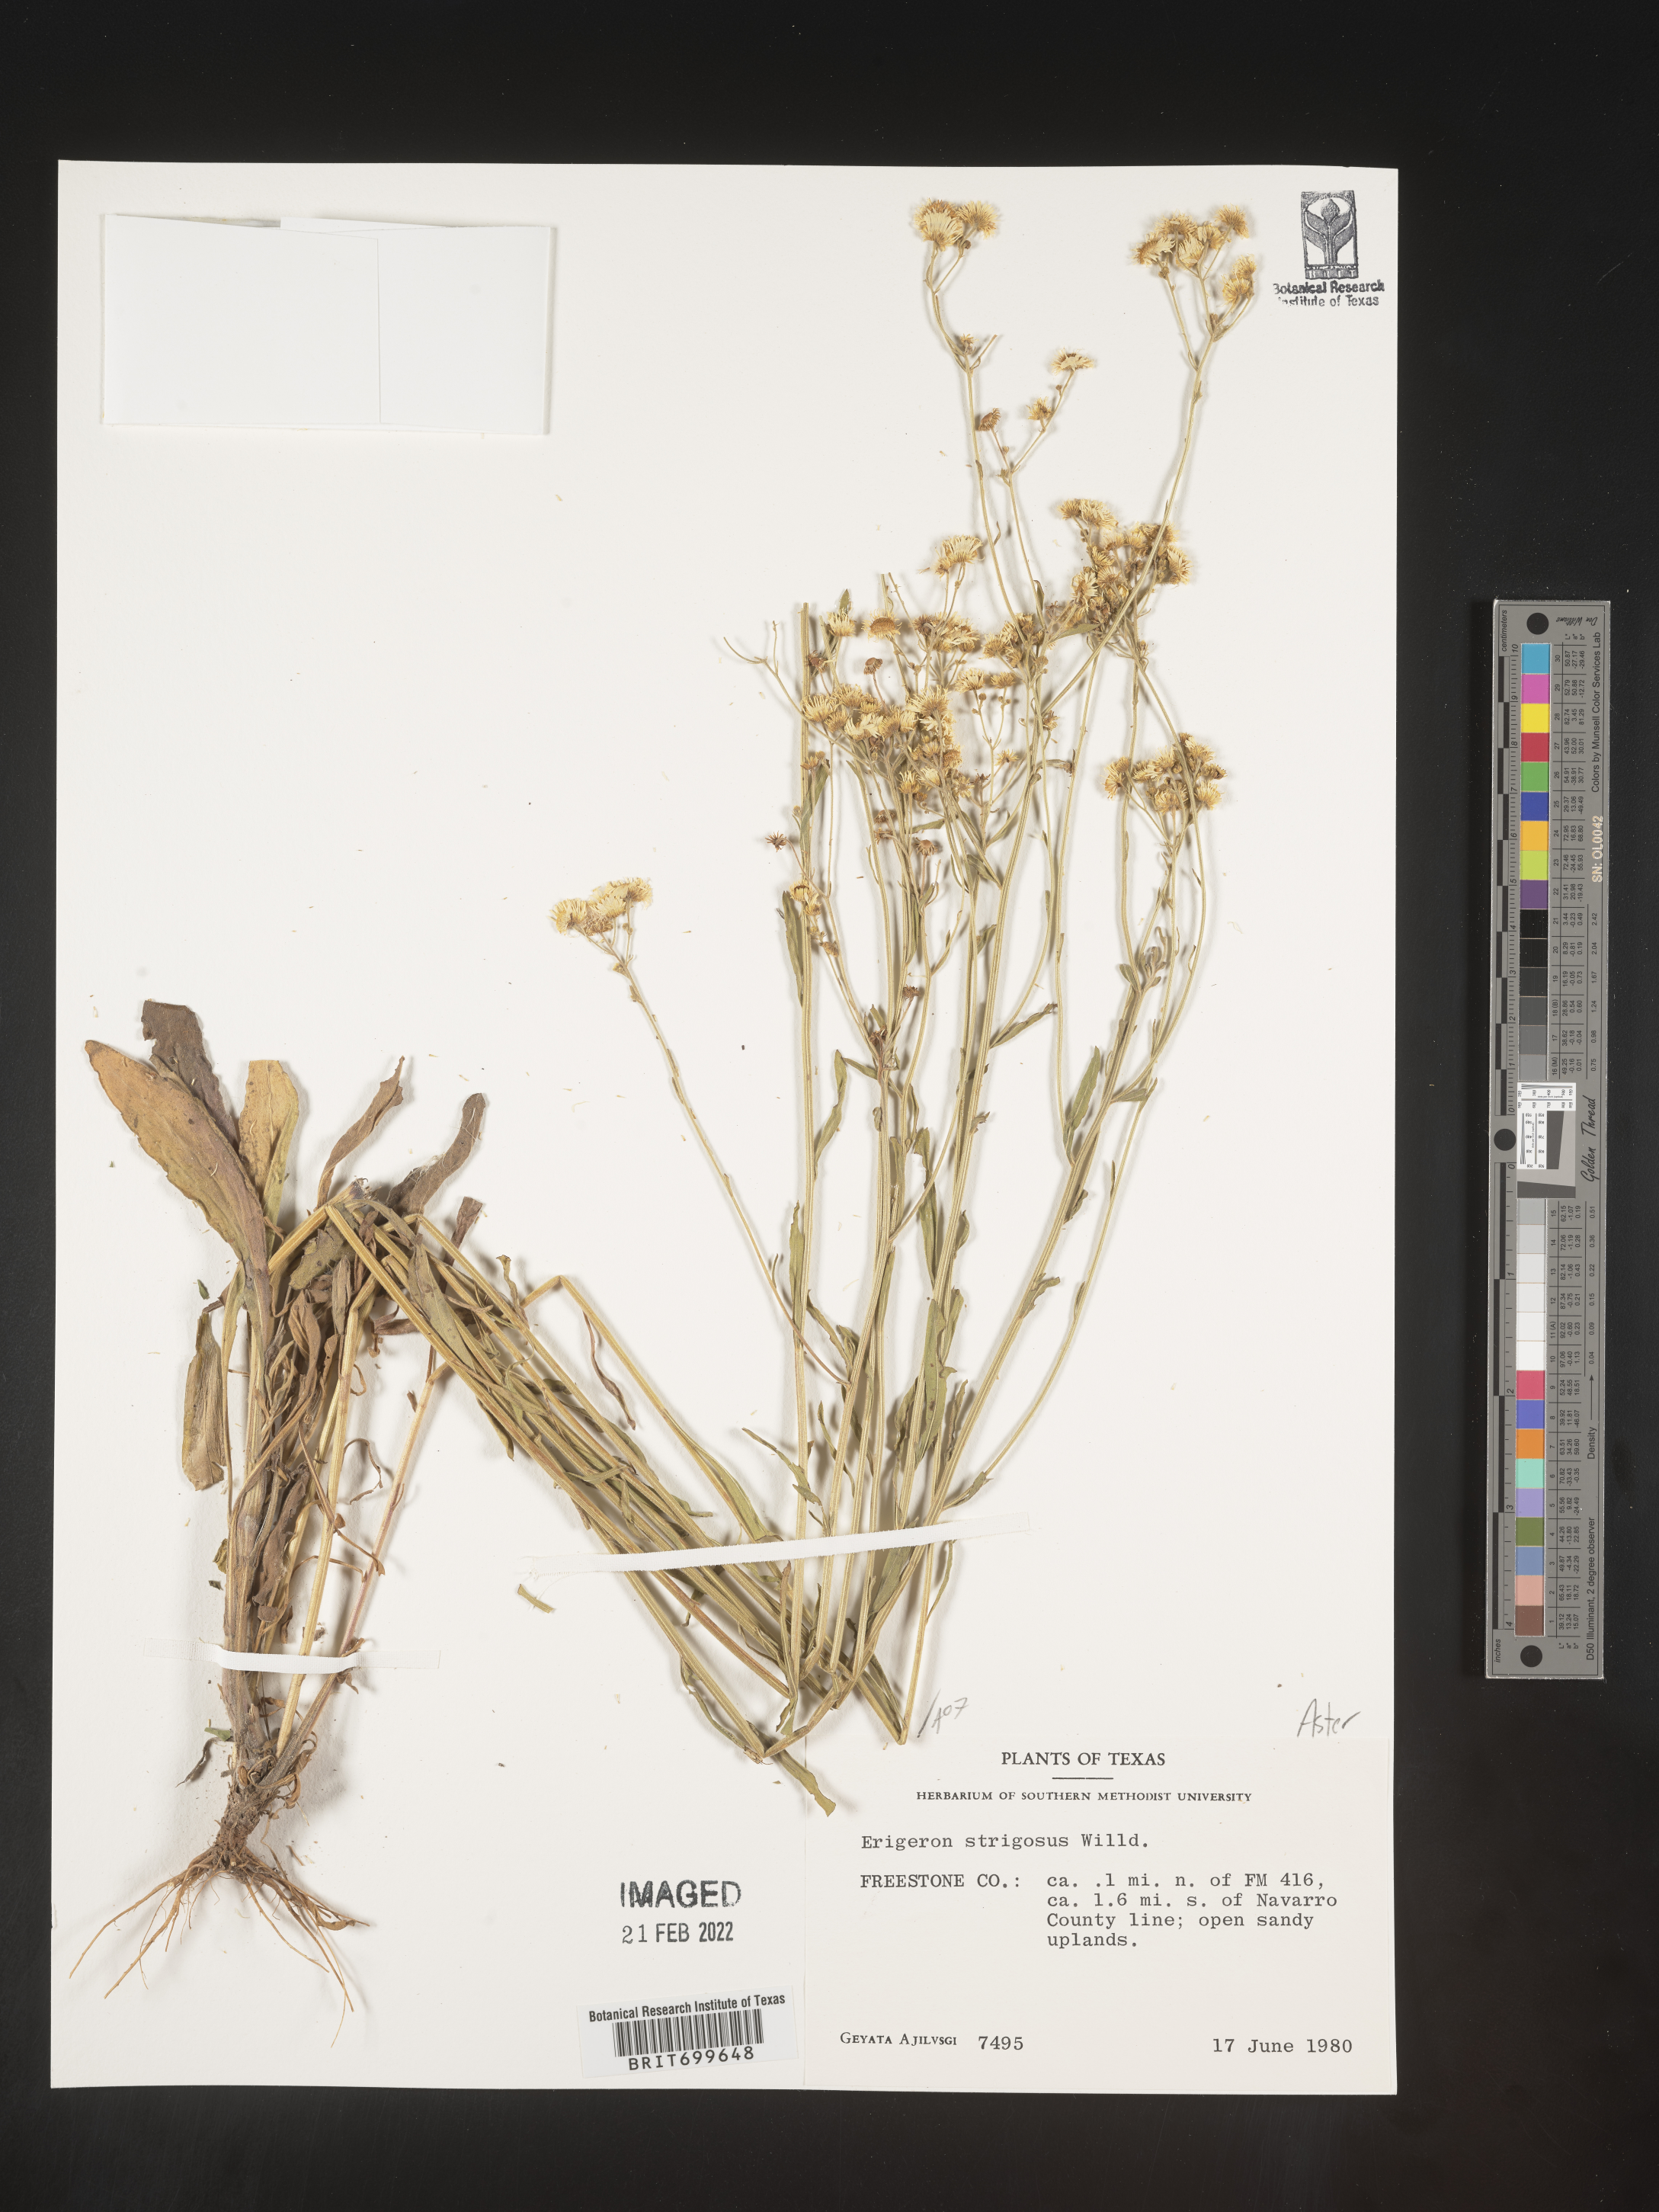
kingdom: Plantae
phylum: Tracheophyta
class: Magnoliopsida
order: Asterales
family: Asteraceae
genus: Erigeron
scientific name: Erigeron strigosus
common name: Common eastern fleabane
